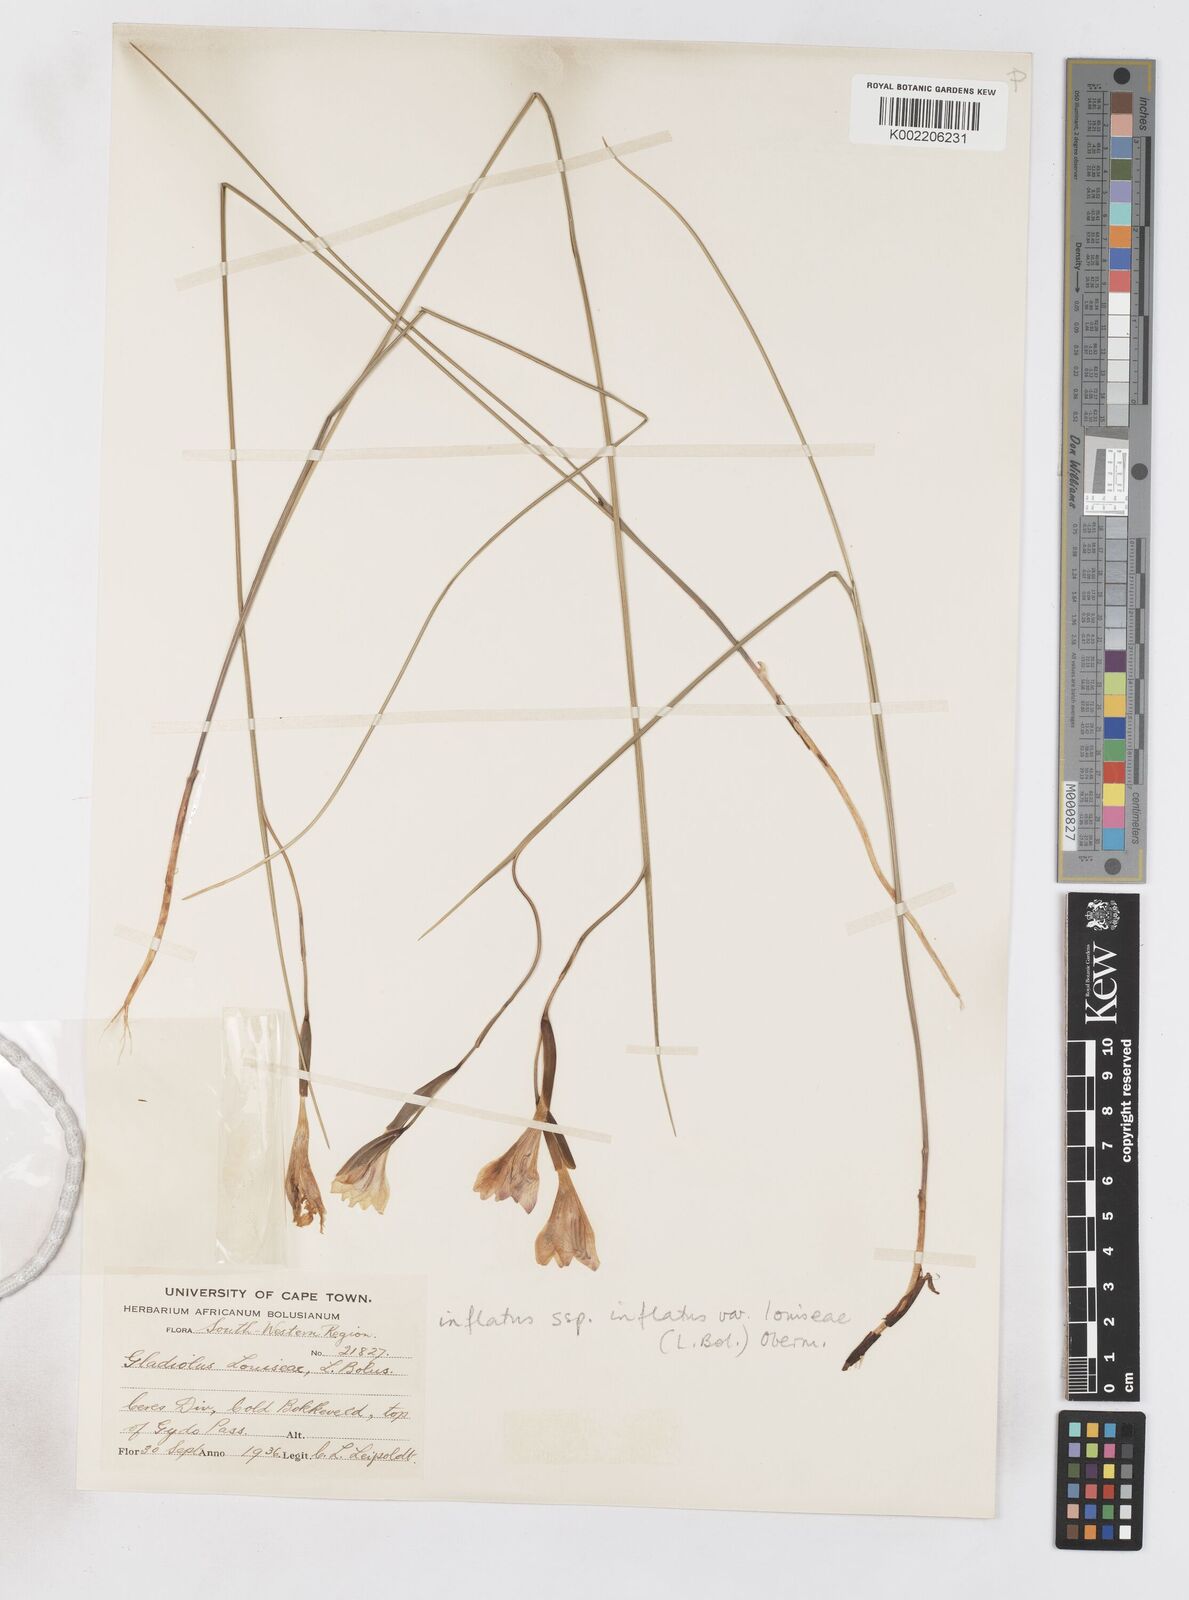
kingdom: Plantae
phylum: Tracheophyta
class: Liliopsida
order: Asparagales
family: Iridaceae
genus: Gladiolus
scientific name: Gladiolus inflatus
